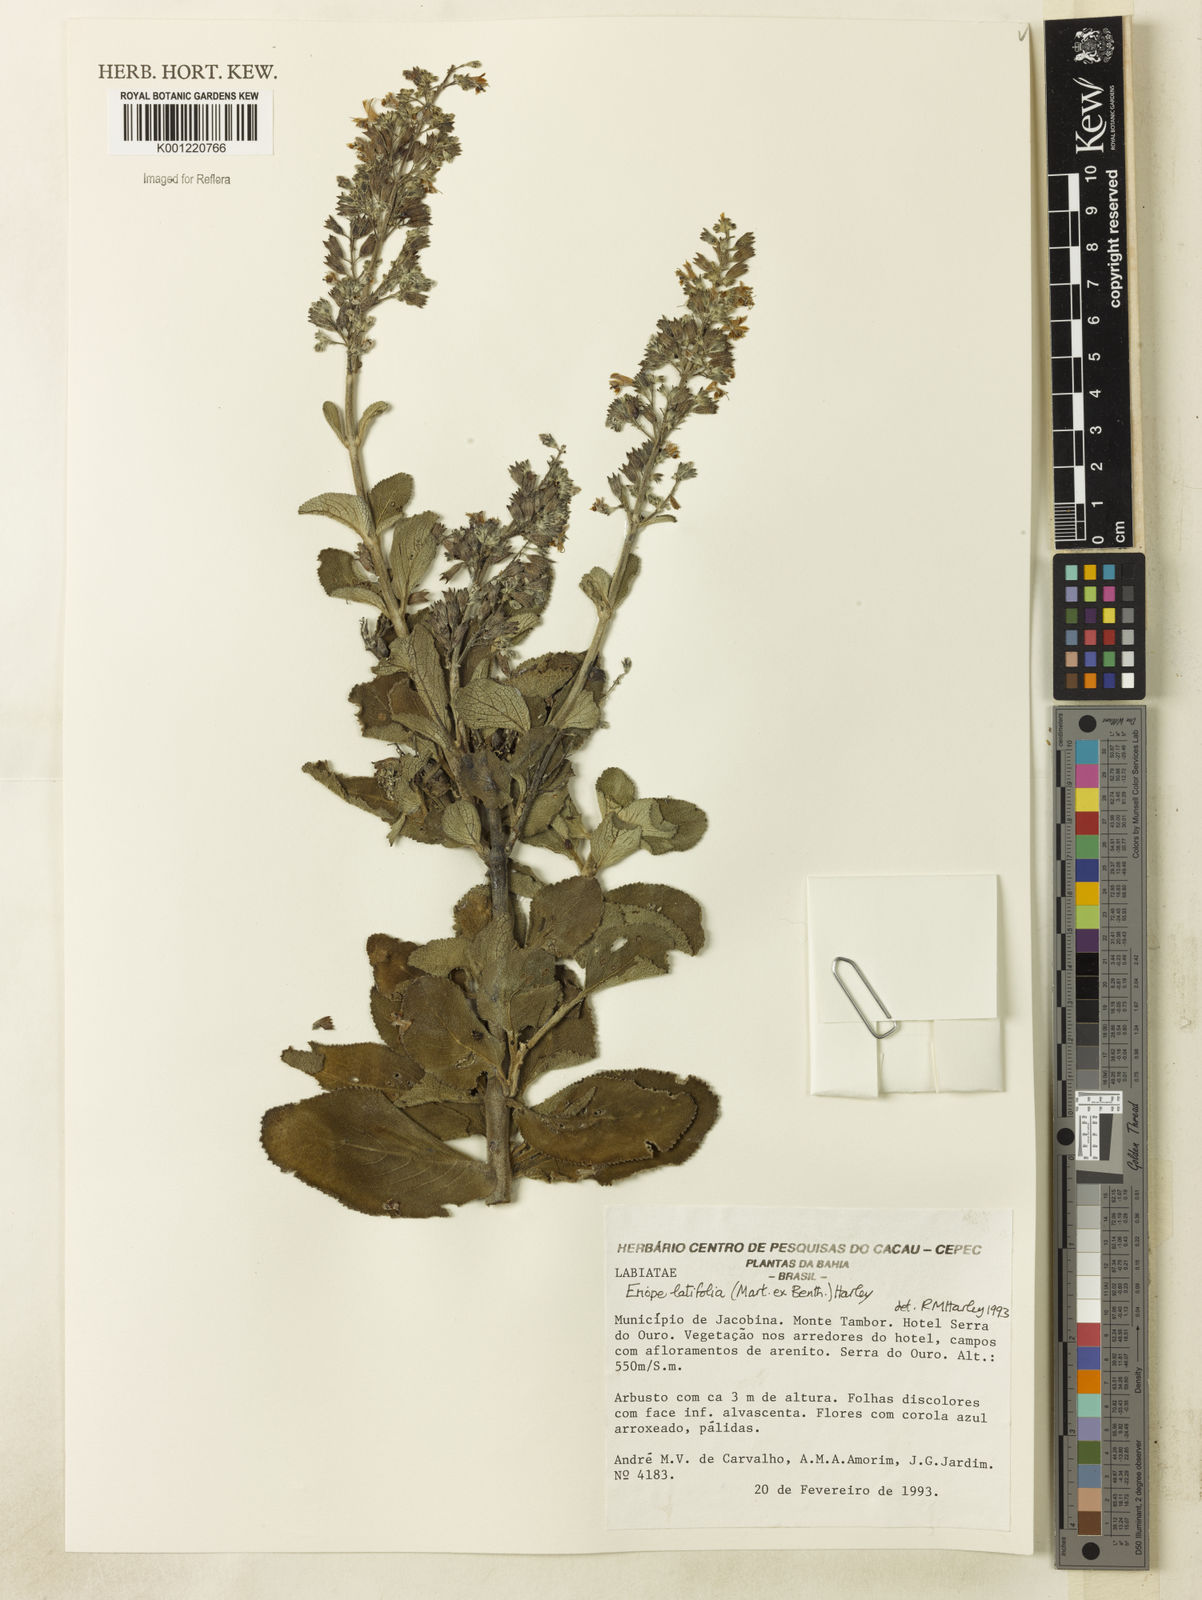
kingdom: Plantae
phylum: Tracheophyta
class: Magnoliopsida
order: Lamiales
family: Lamiaceae
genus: Eriope
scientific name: Eriope latifolia
